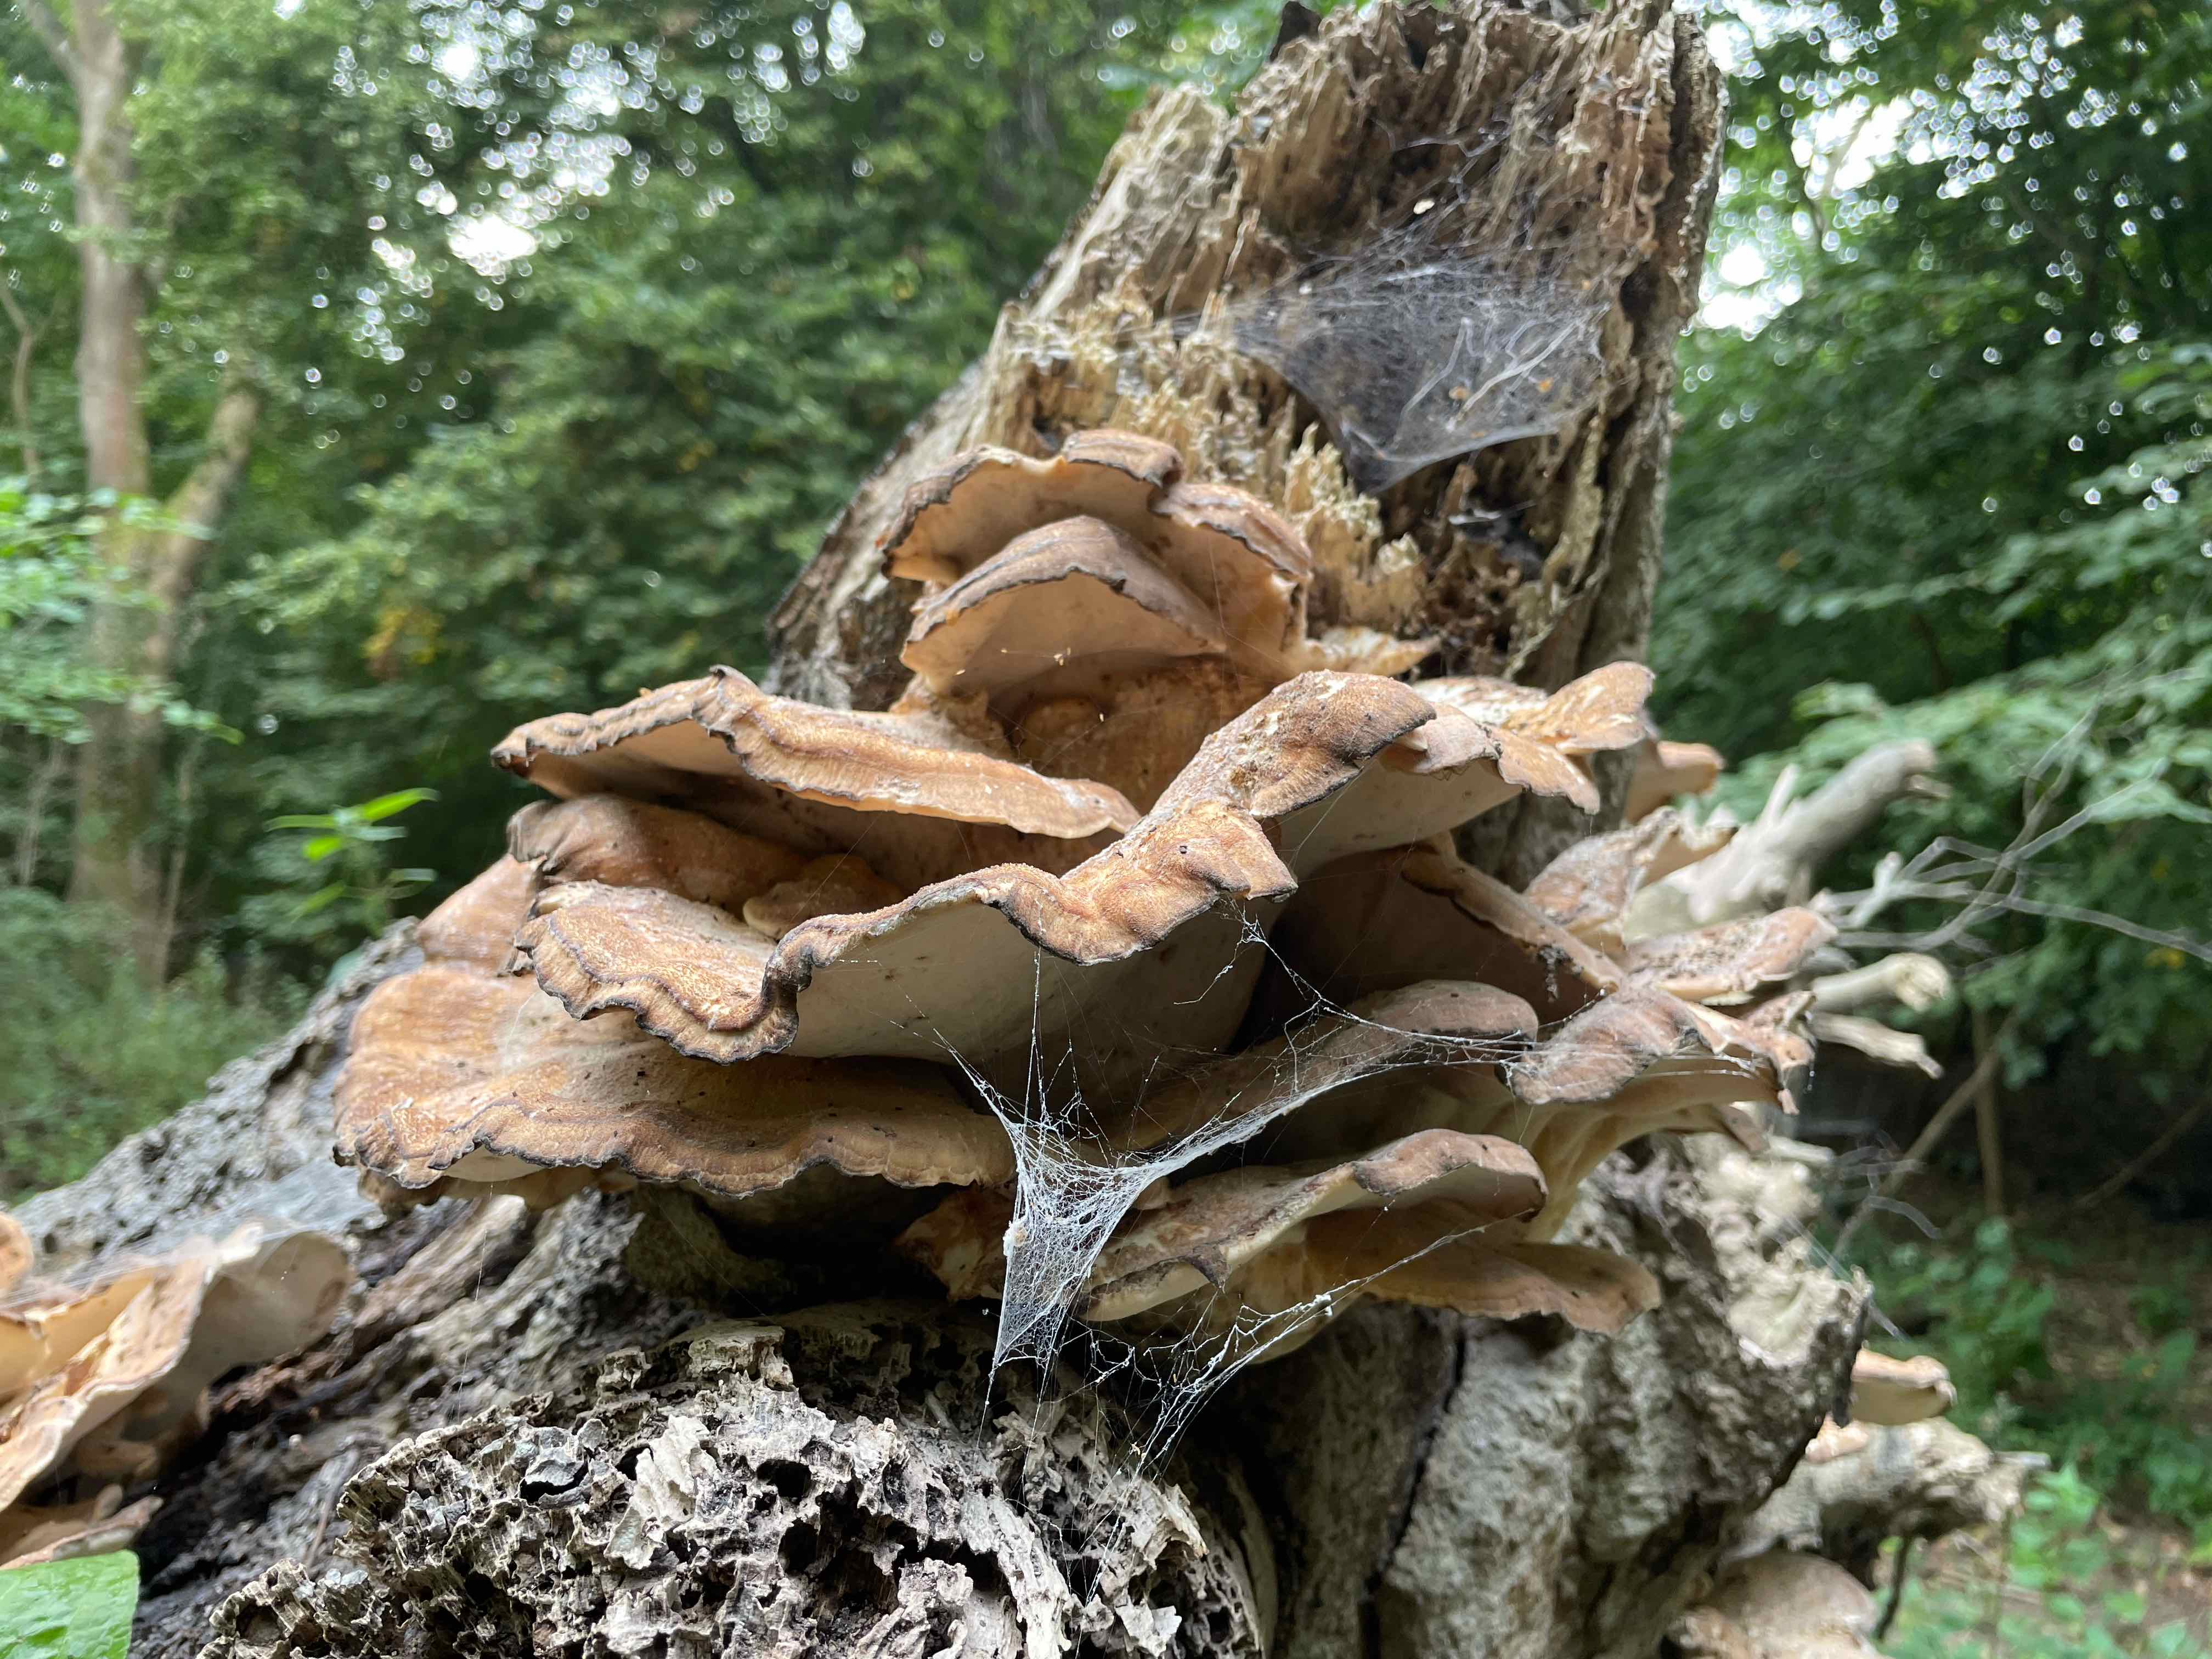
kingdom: Fungi
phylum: Basidiomycota
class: Agaricomycetes
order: Polyporales
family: Meripilaceae
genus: Meripilus
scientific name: Meripilus giganteus
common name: kæmpeporesvamp
